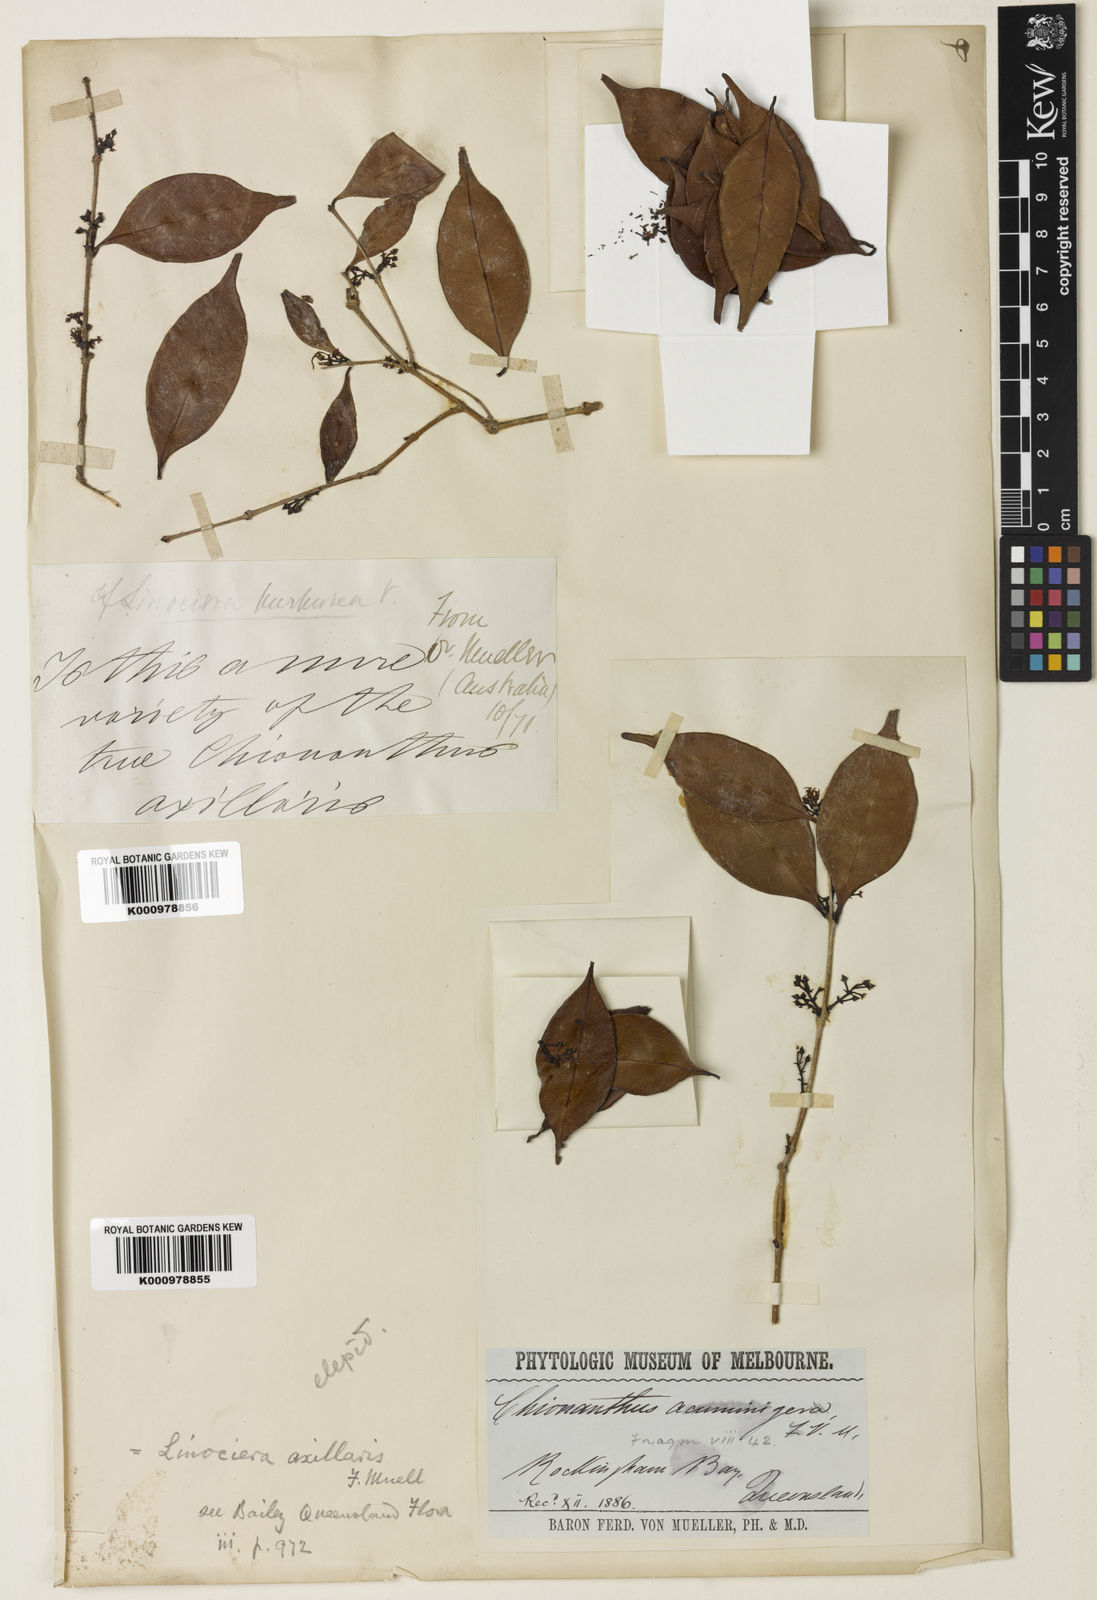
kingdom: Plantae
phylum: Tracheophyta
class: Magnoliopsida
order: Lamiales
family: Oleaceae
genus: Chionanthus
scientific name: Chionanthus axillaris
